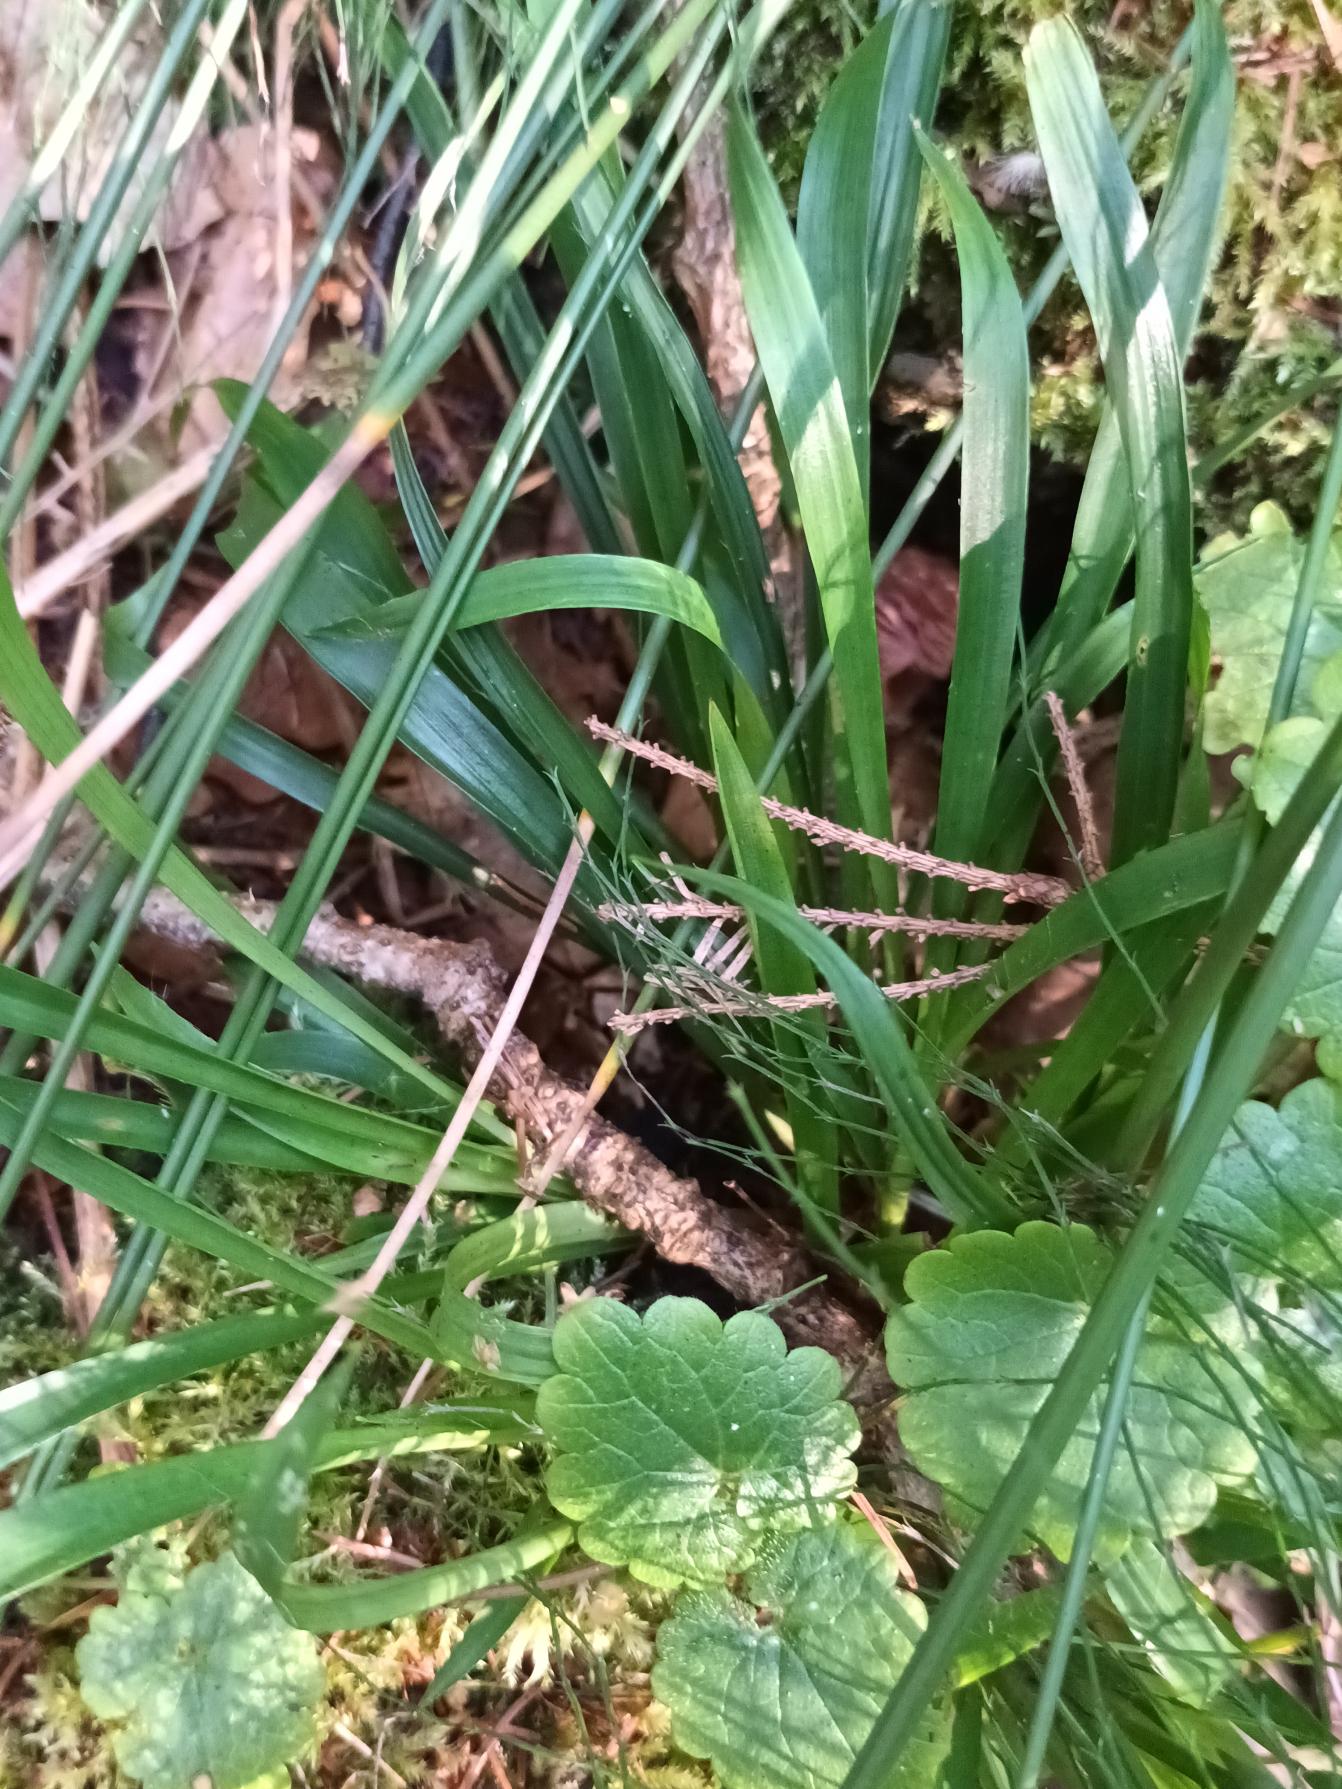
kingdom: Plantae
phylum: Tracheophyta
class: Liliopsida
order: Poales
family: Juncaceae
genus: Luzula
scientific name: Luzula pilosa
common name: Håret frytle
